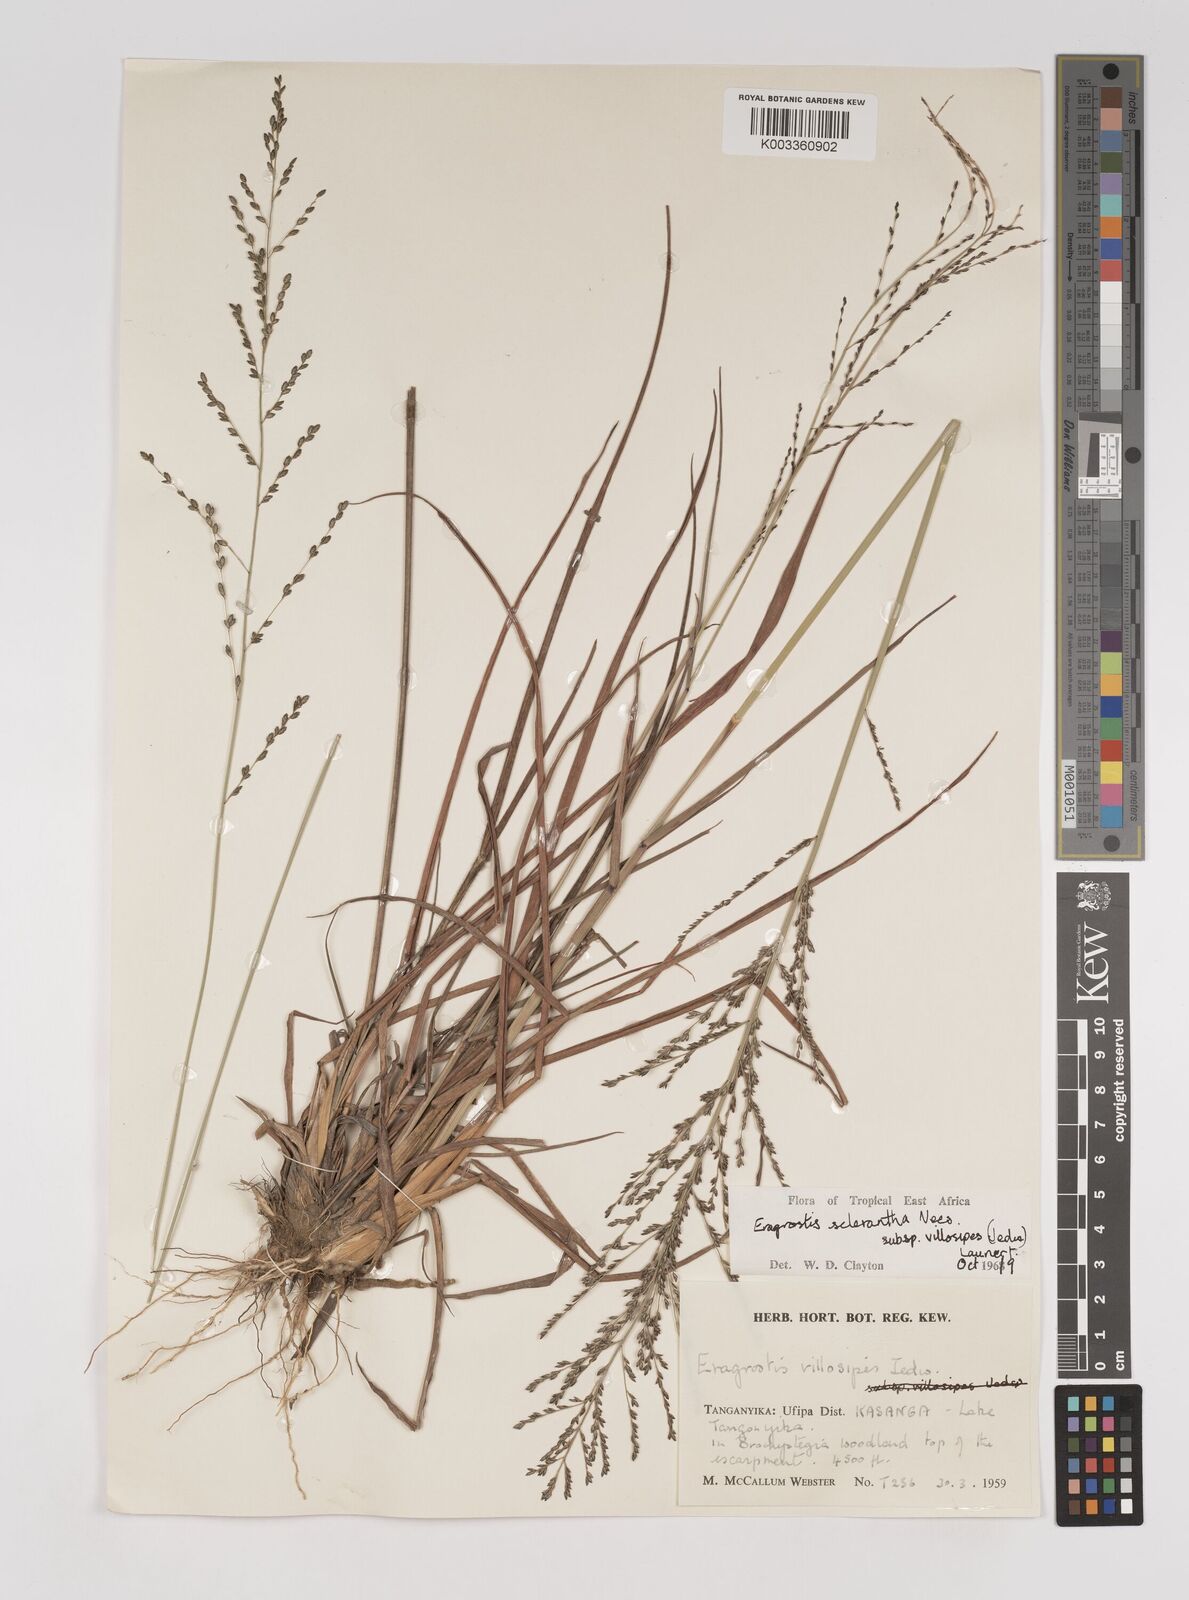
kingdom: Plantae
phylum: Tracheophyta
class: Liliopsida
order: Poales
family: Poaceae
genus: Eragrostis
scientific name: Eragrostis sclerantha
